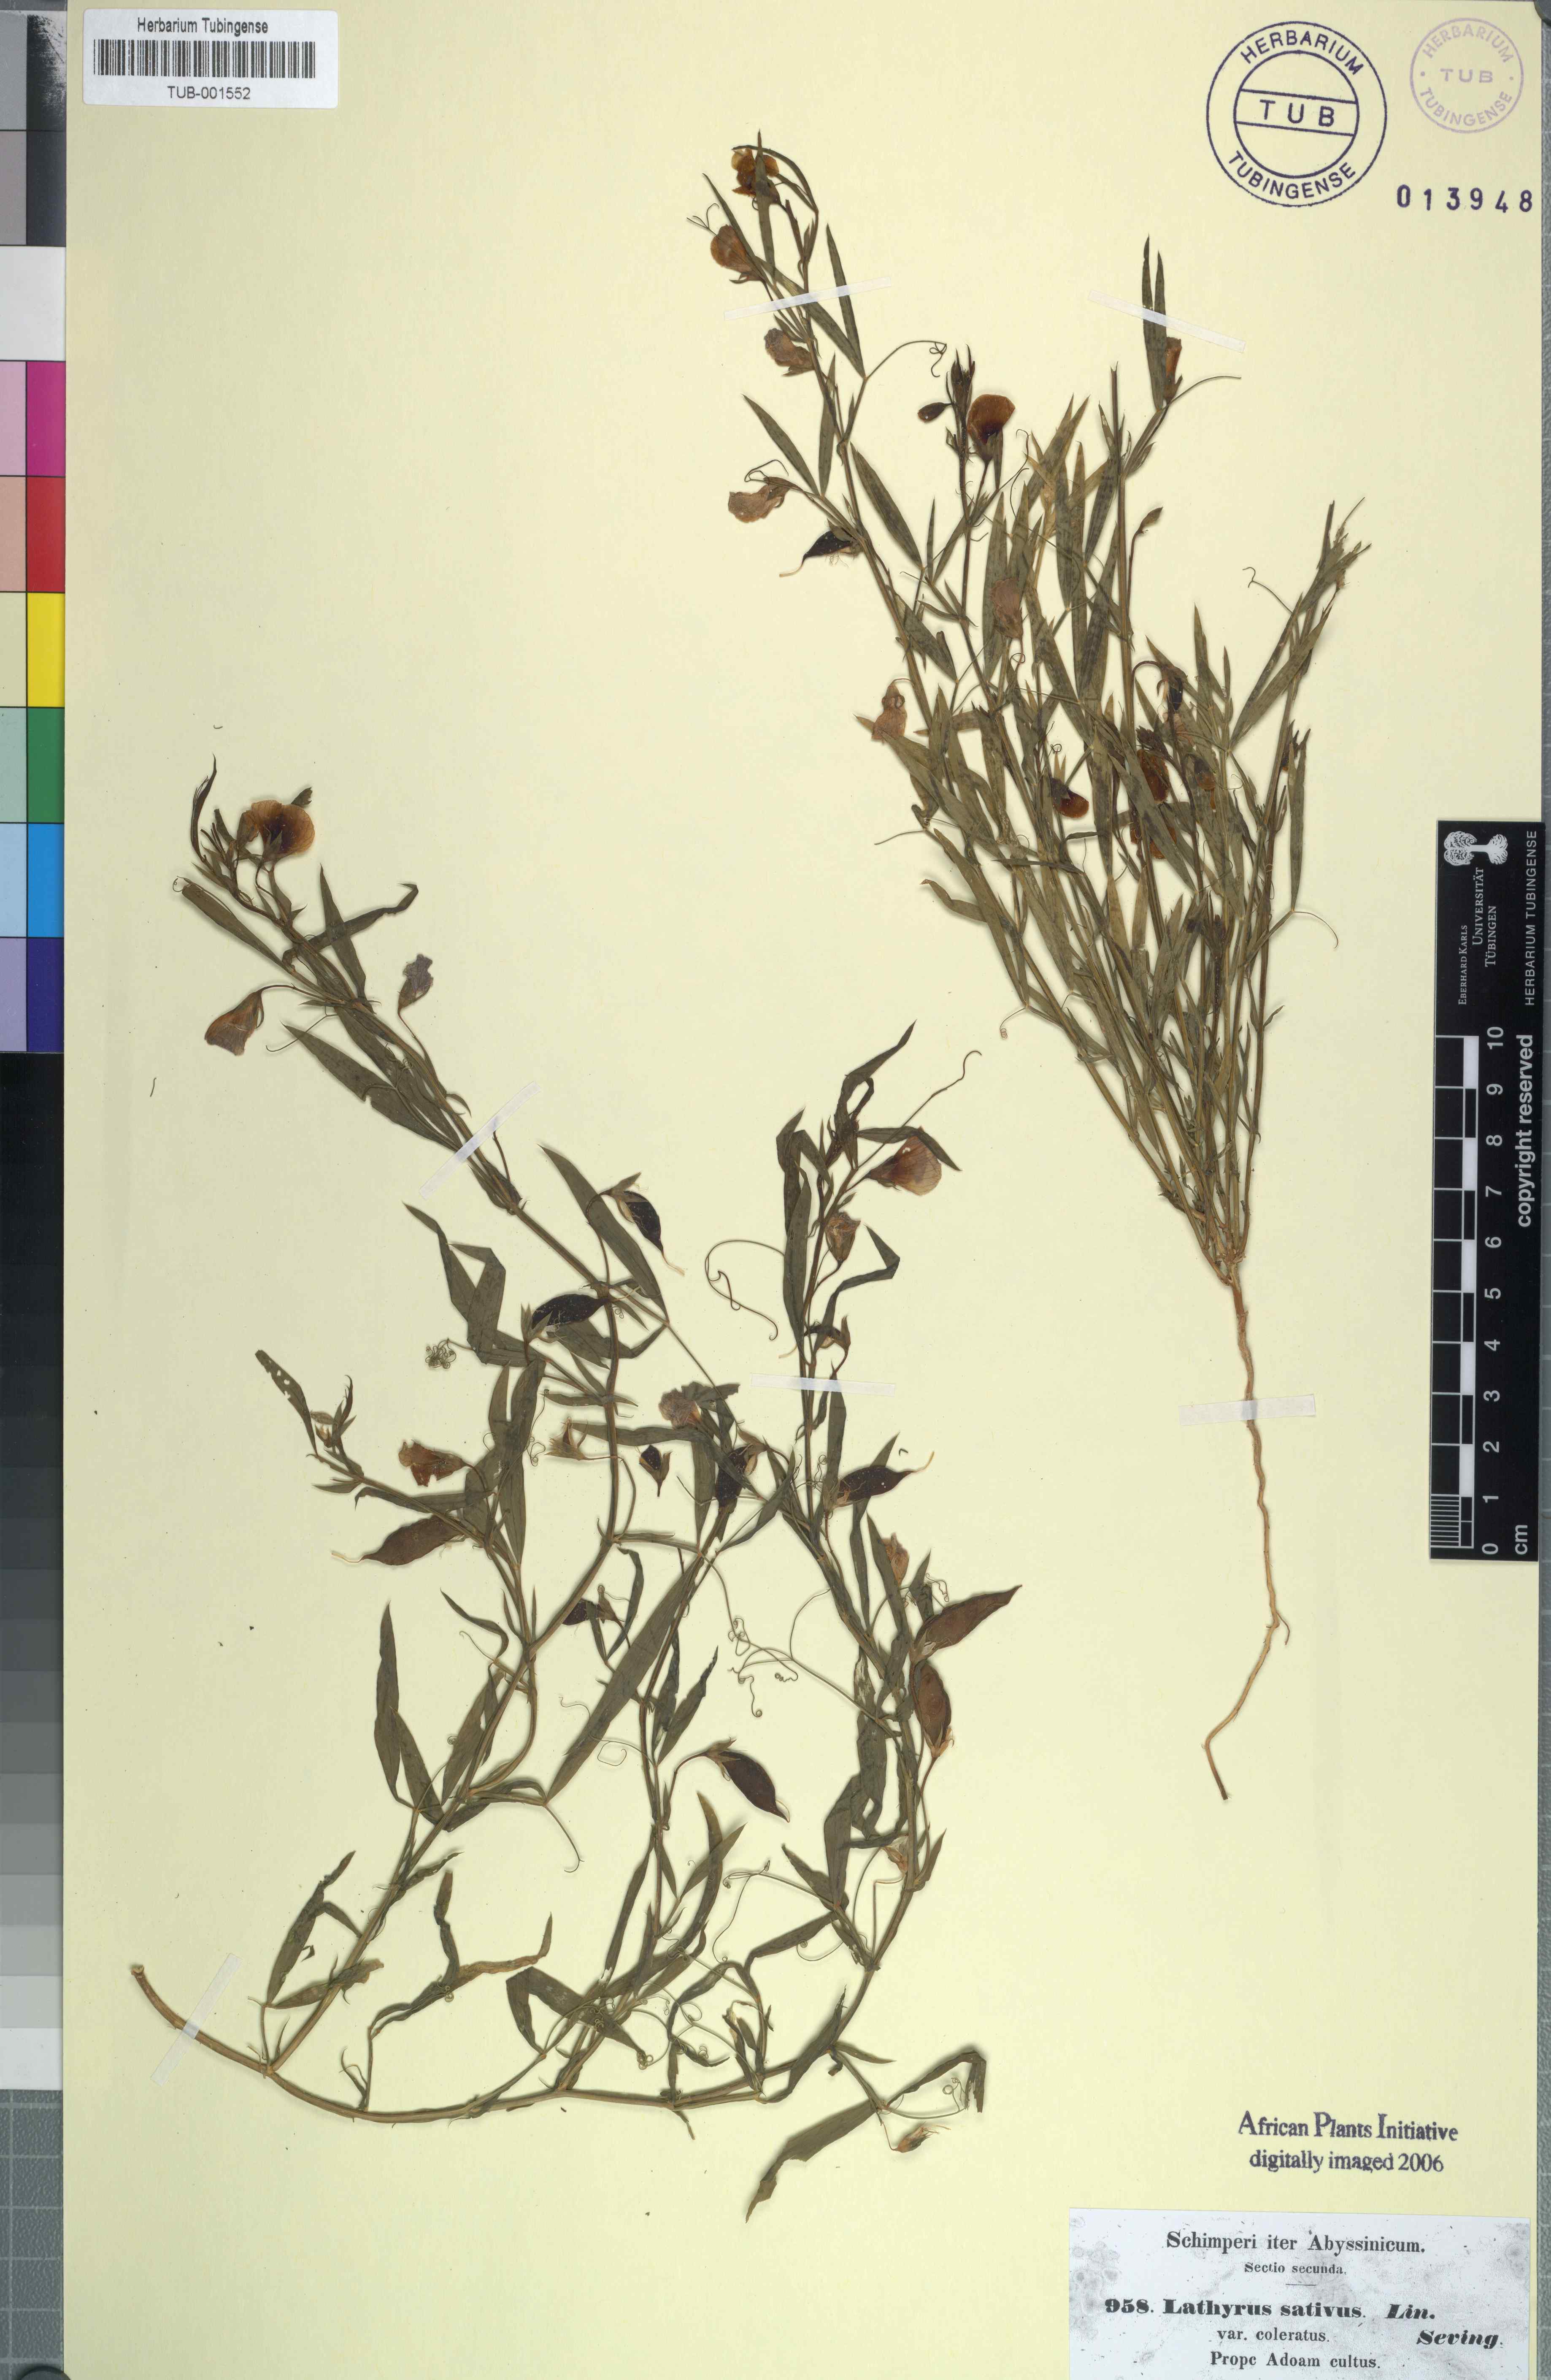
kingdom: Plantae
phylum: Tracheophyta
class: Magnoliopsida
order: Fabales
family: Fabaceae
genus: Lathyrus
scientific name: Lathyrus sativus
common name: Indian pea
